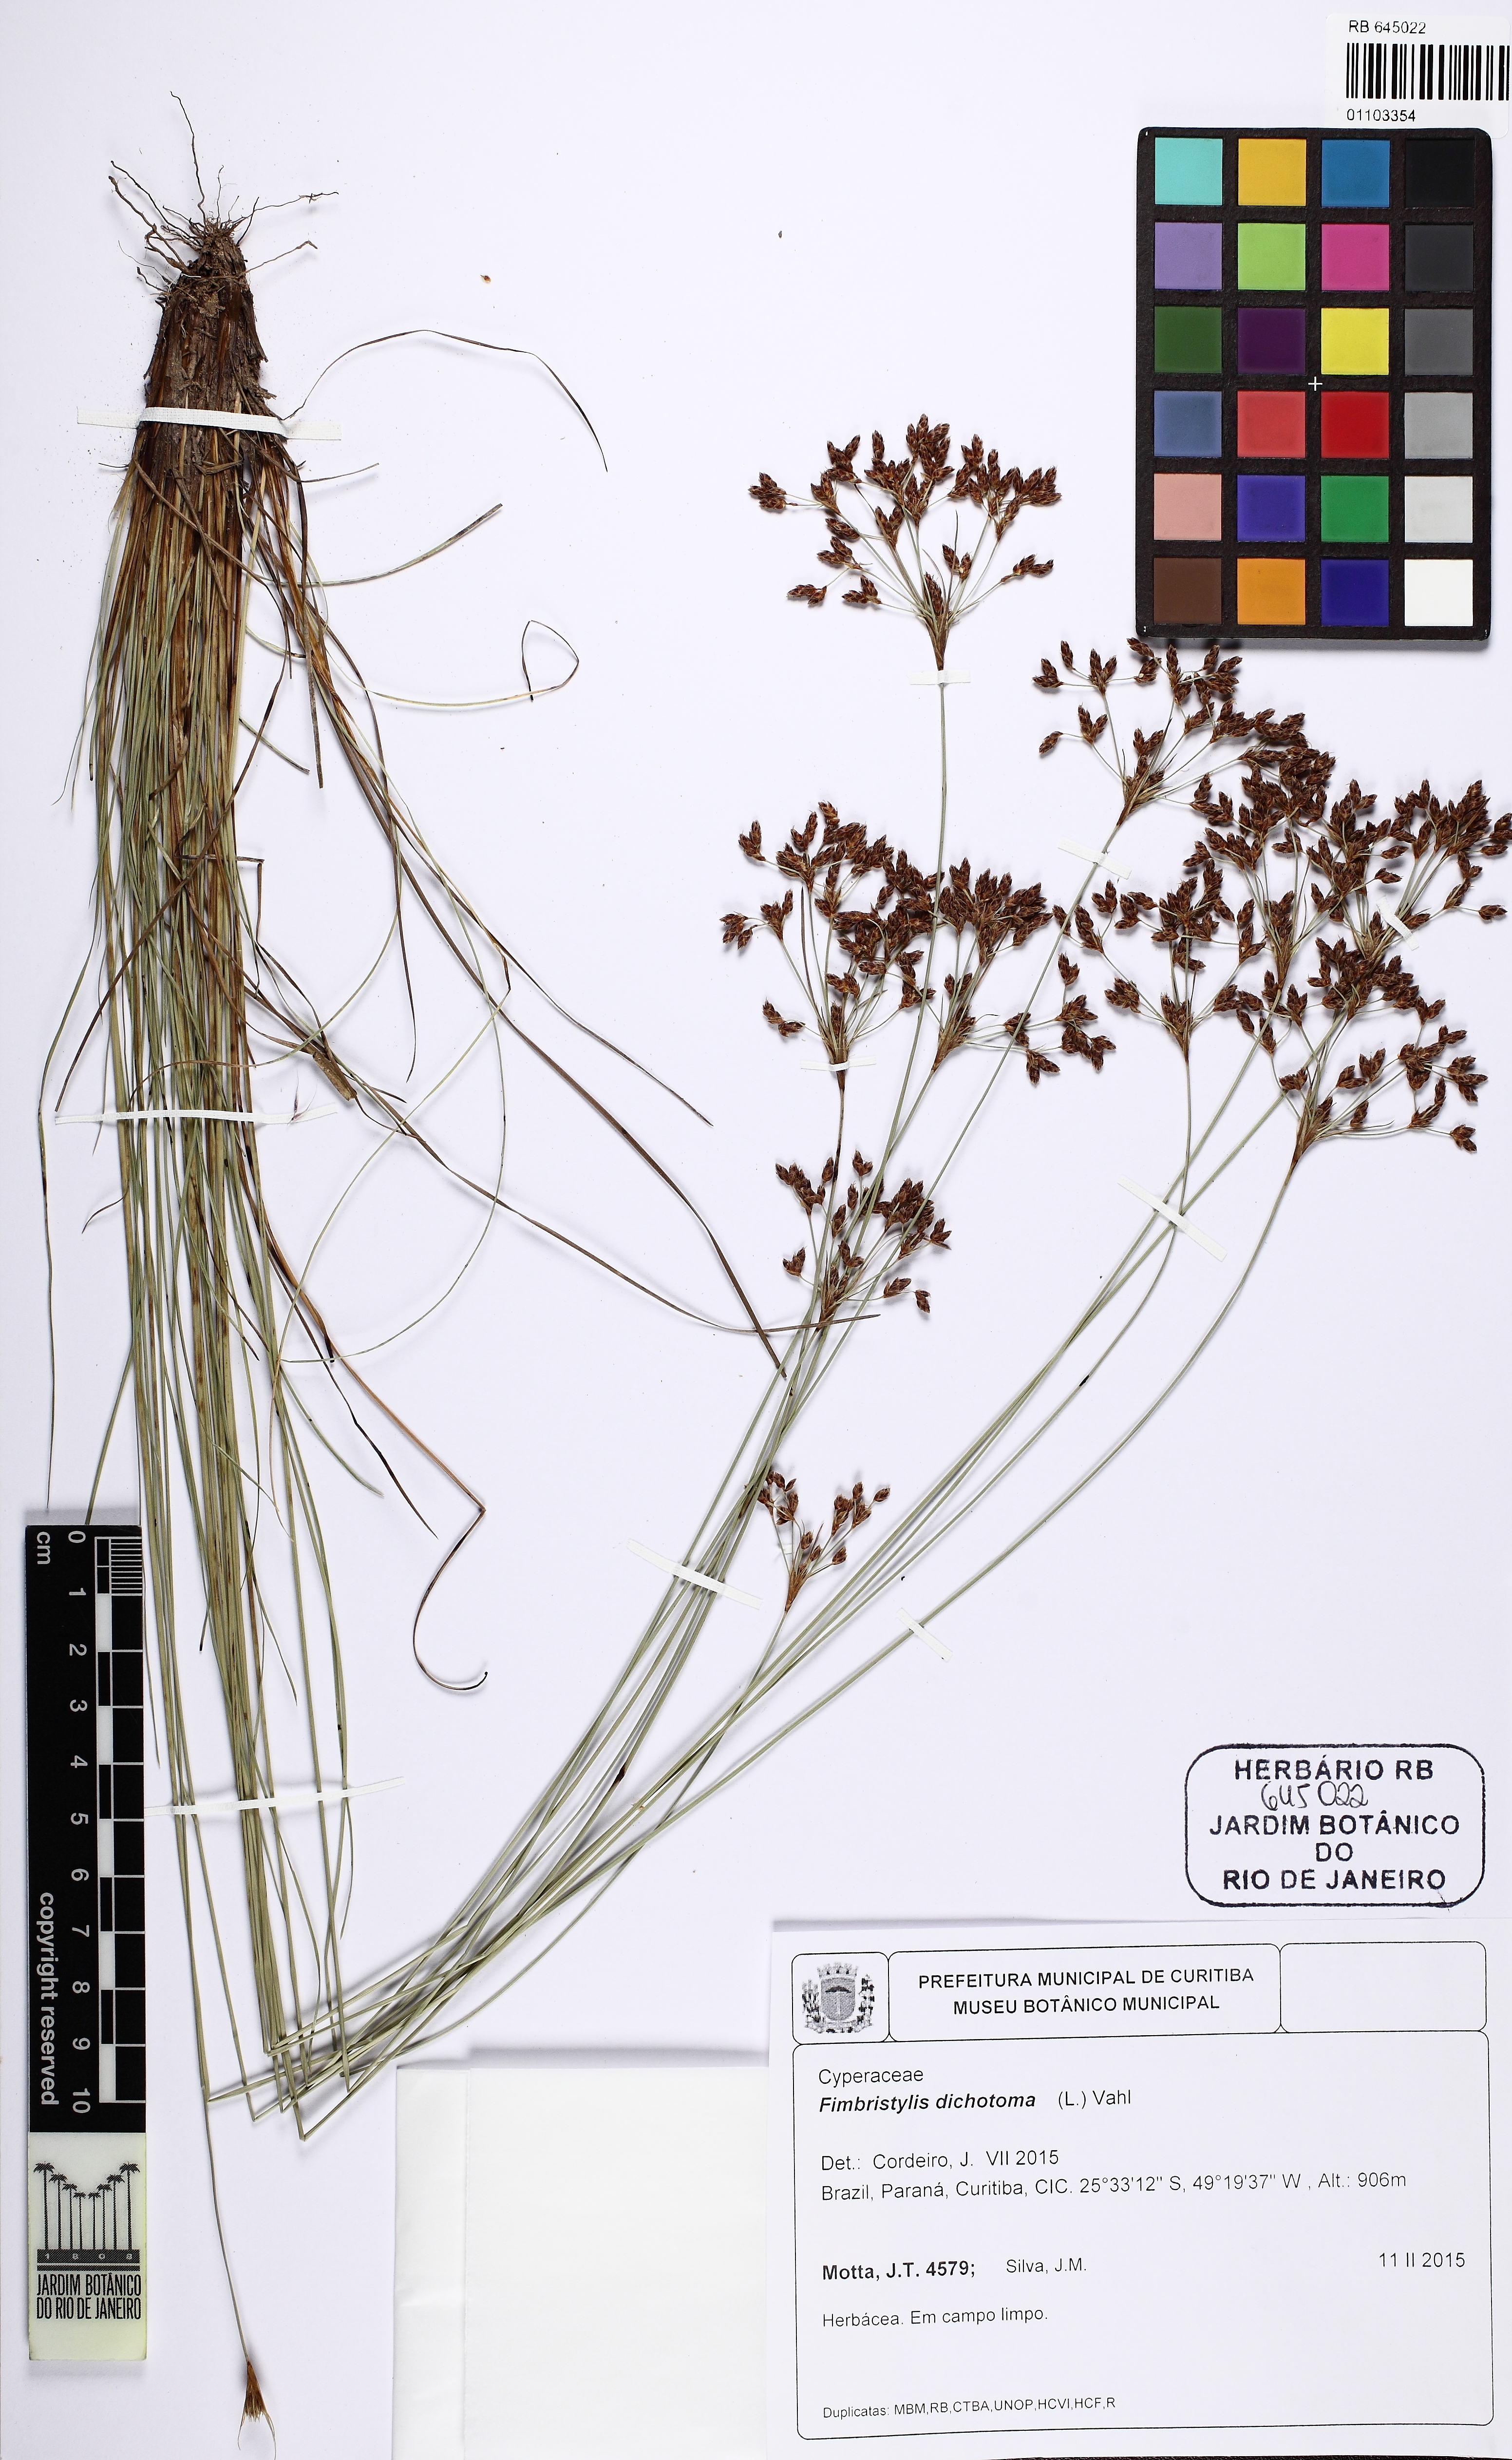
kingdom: Plantae
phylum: Tracheophyta
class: Liliopsida
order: Poales
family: Cyperaceae
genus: Bulbostylis
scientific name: Bulbostylis consanguinea
